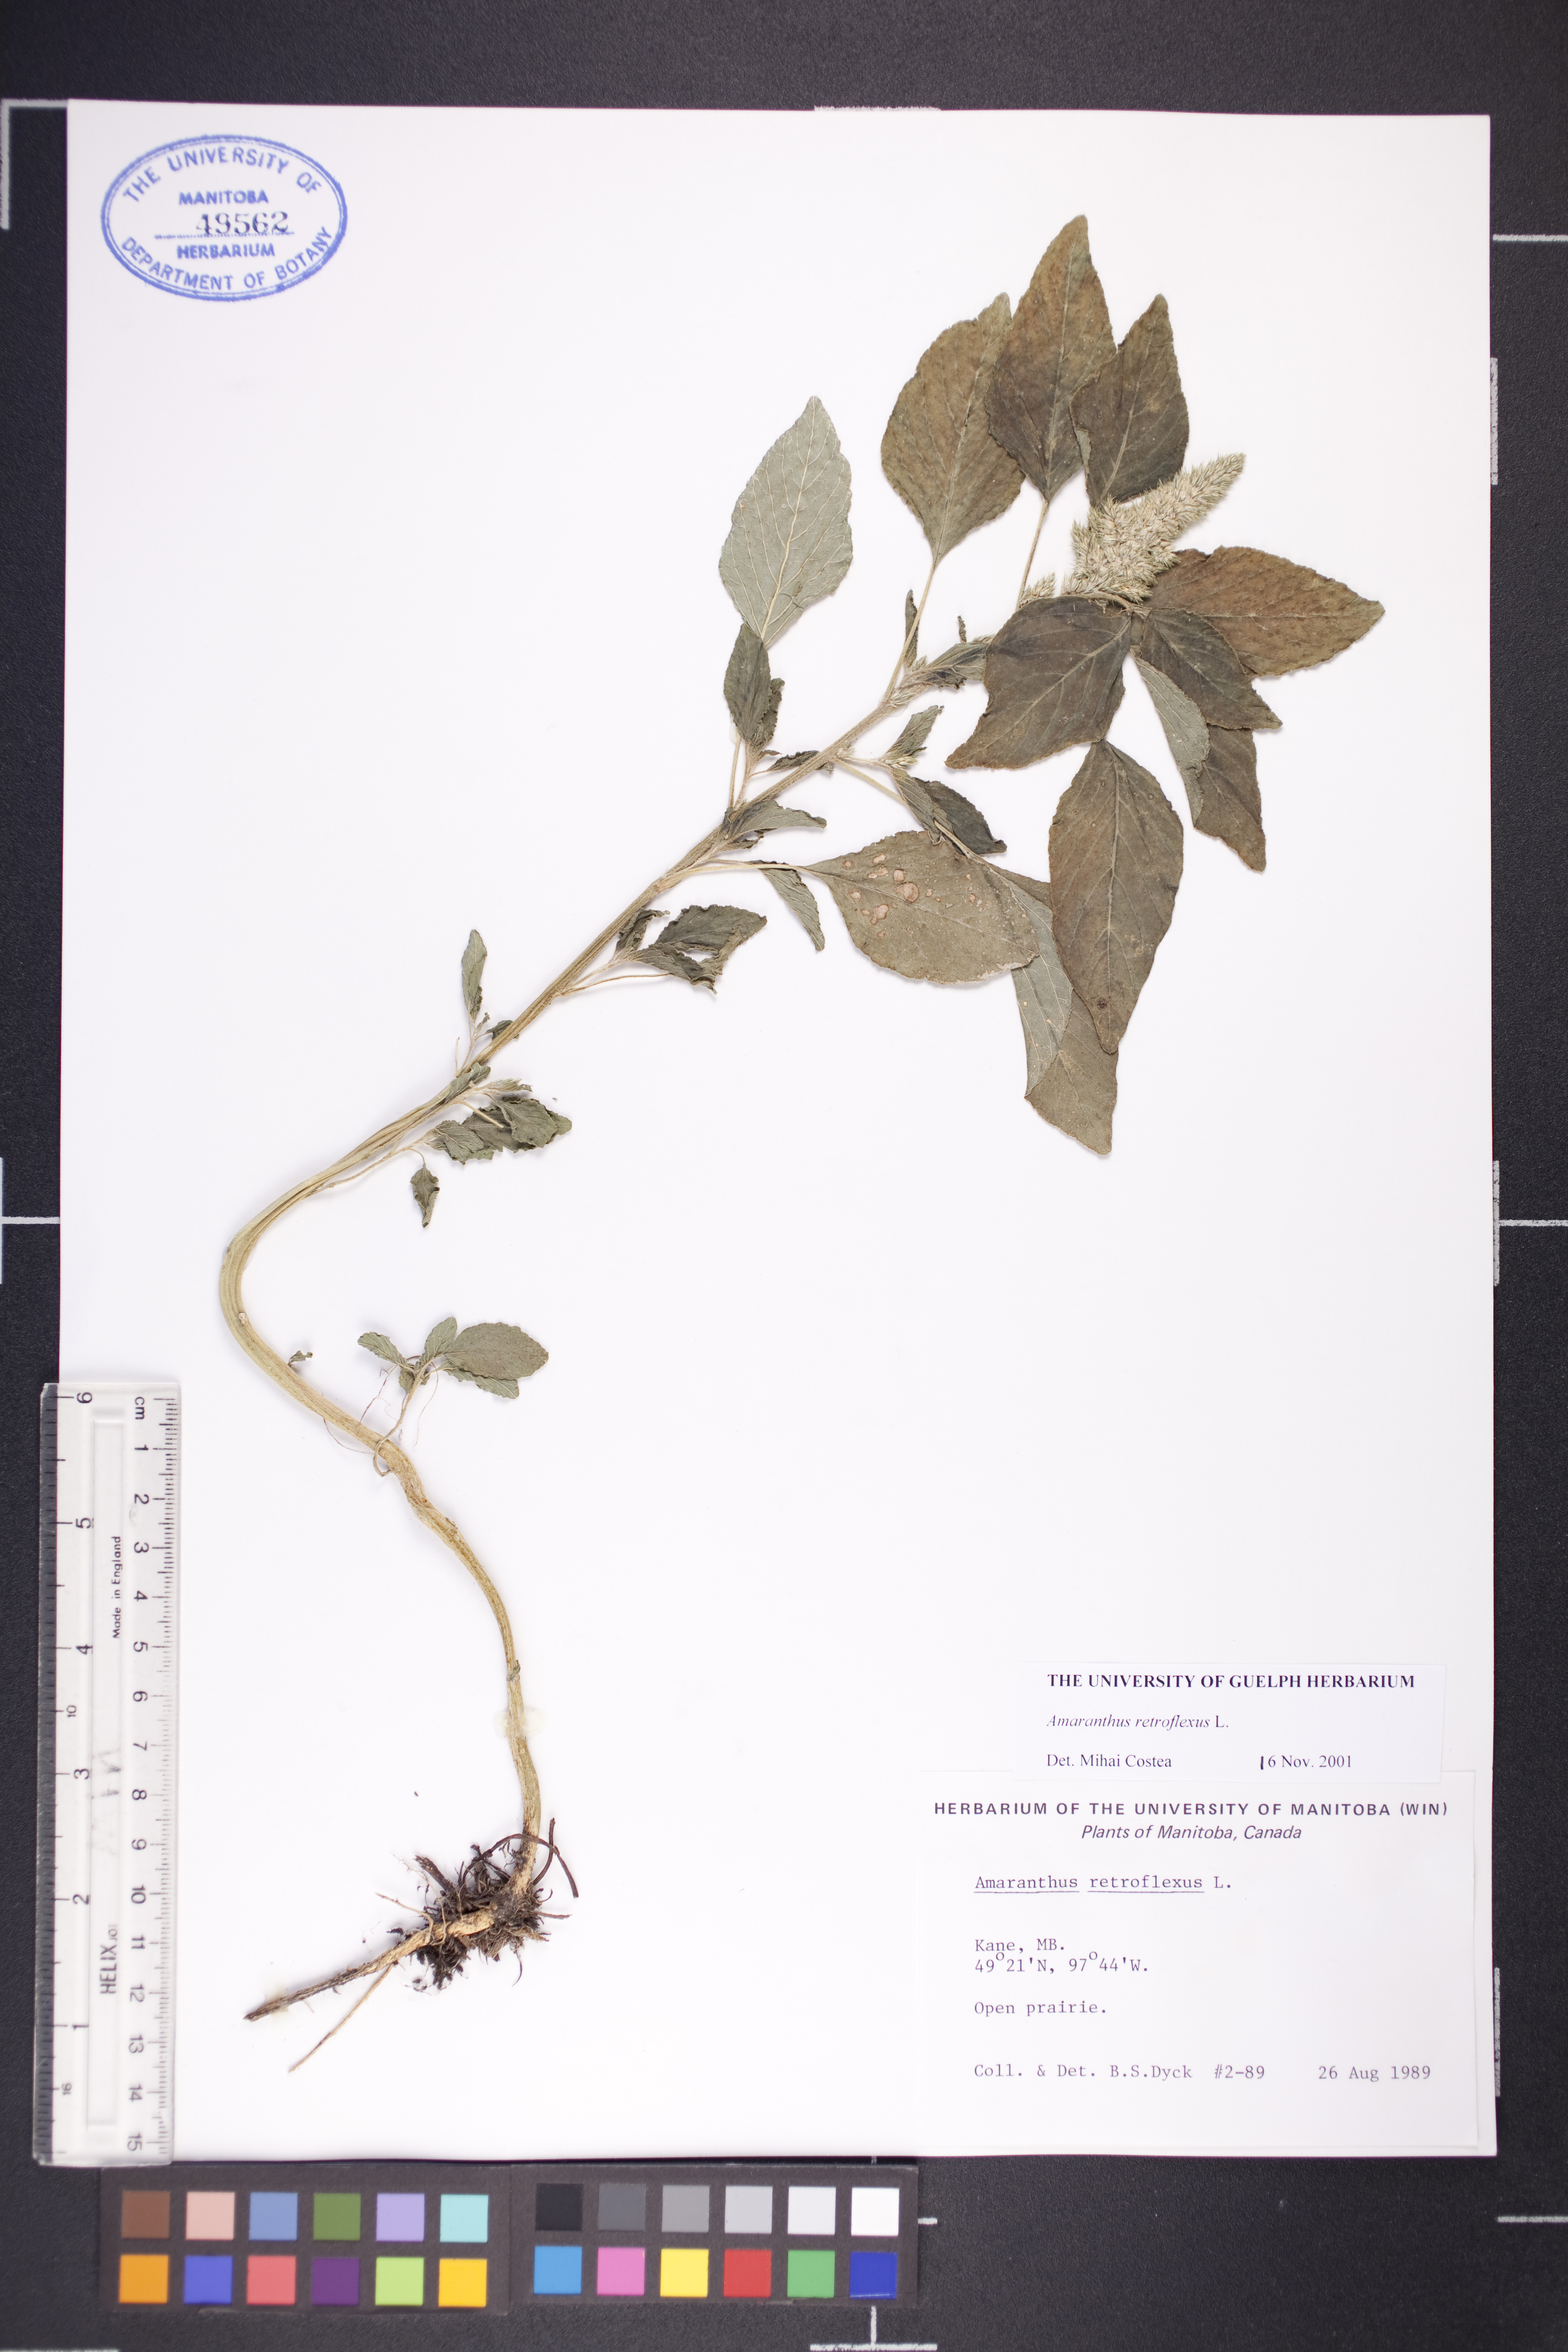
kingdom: Plantae
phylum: Tracheophyta
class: Magnoliopsida
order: Caryophyllales
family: Amaranthaceae
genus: Amaranthus
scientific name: Amaranthus retroflexus
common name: Redroot amaranth
